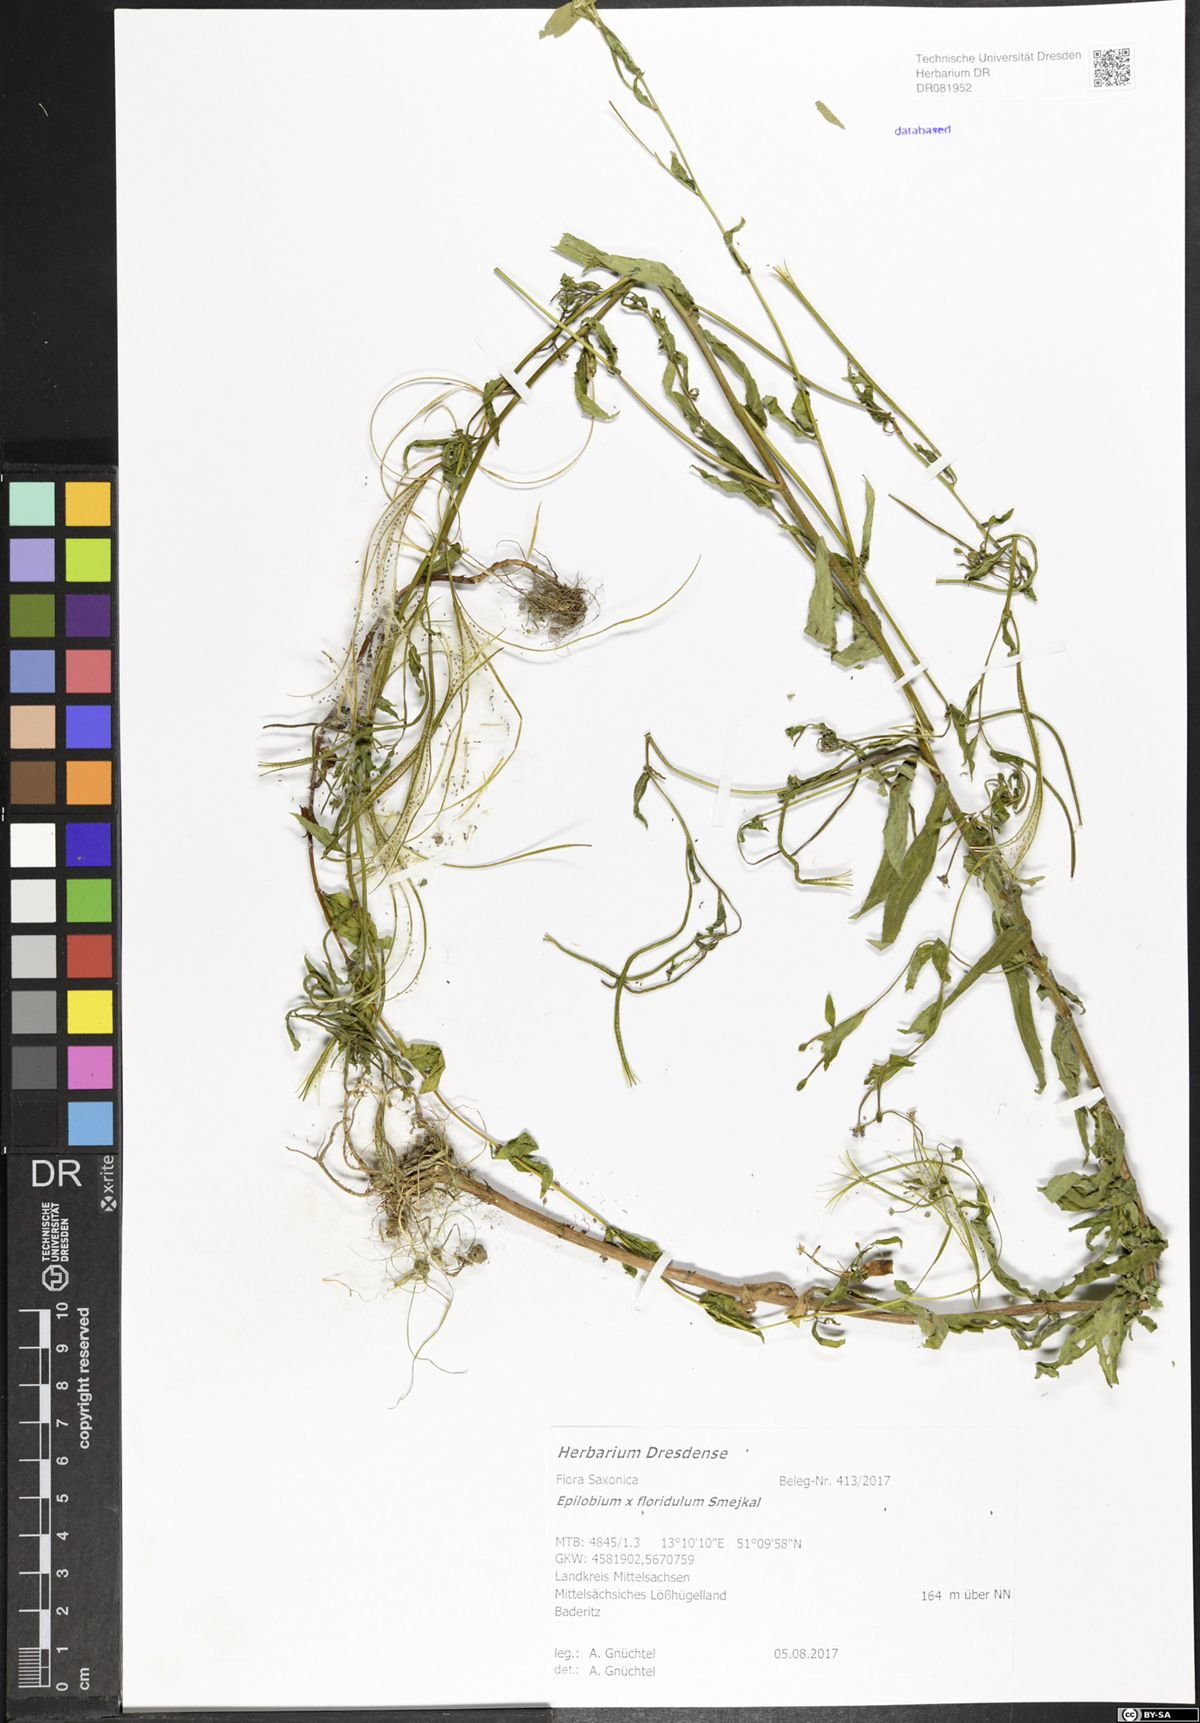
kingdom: Plantae
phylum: Tracheophyta
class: Magnoliopsida
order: Myrtales
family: Onagraceae
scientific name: Onagraceae
